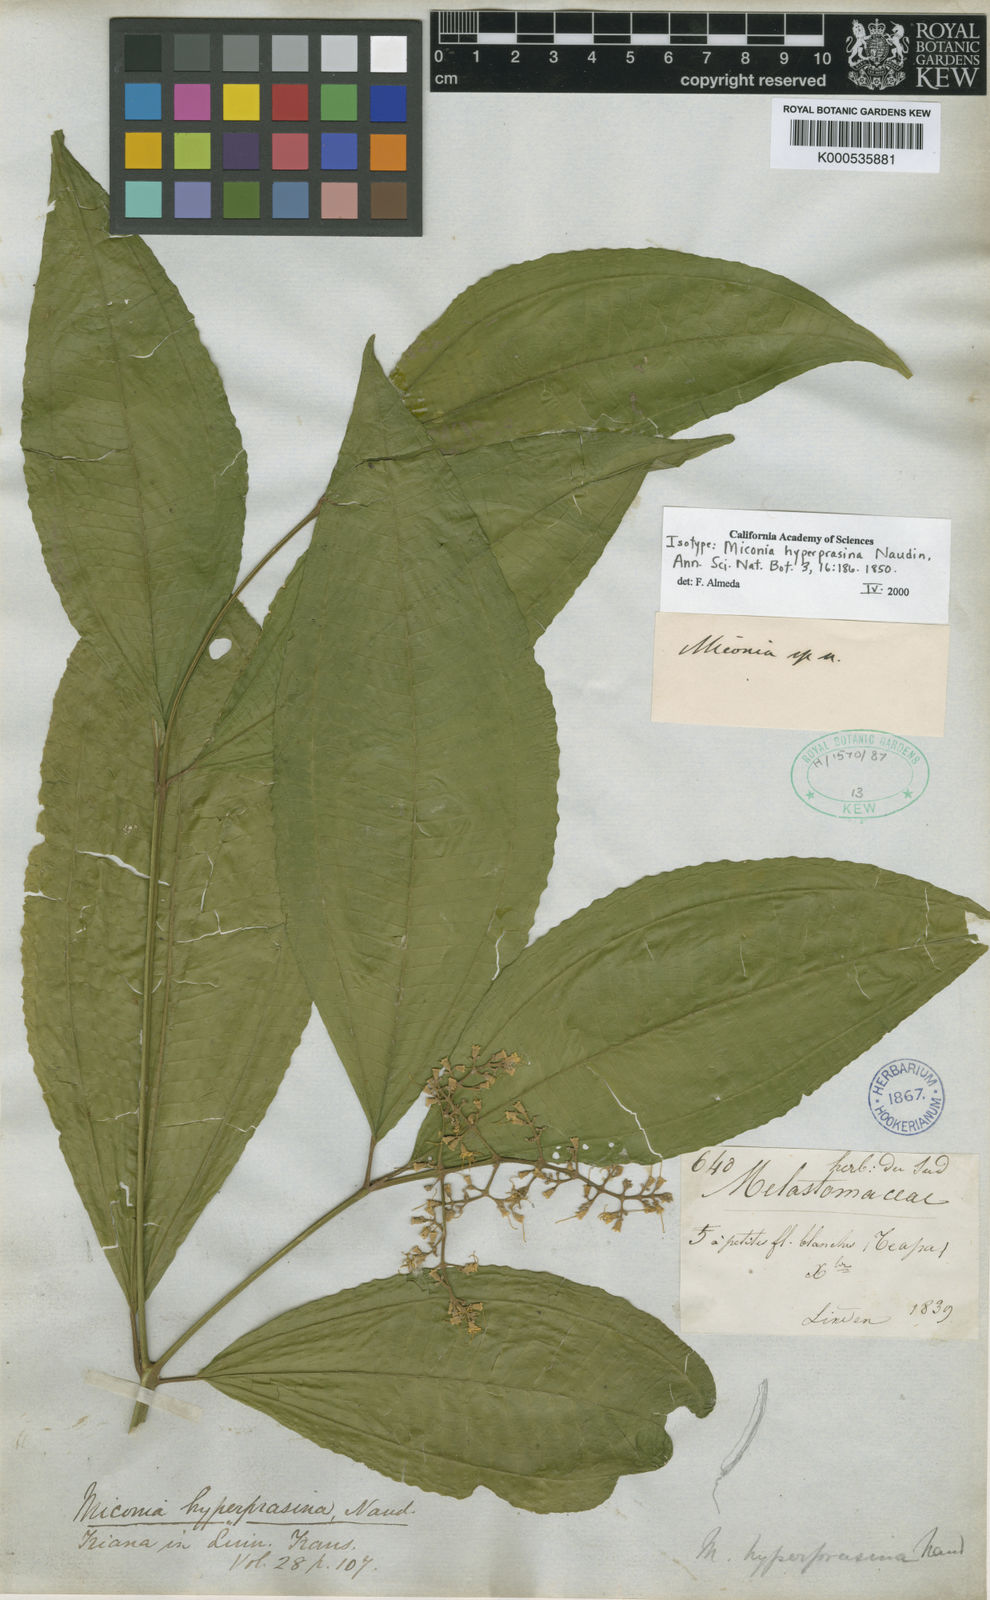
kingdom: Plantae
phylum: Tracheophyta
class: Magnoliopsida
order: Myrtales
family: Melastomataceae
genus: Miconia
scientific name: Miconia hyperprasina
